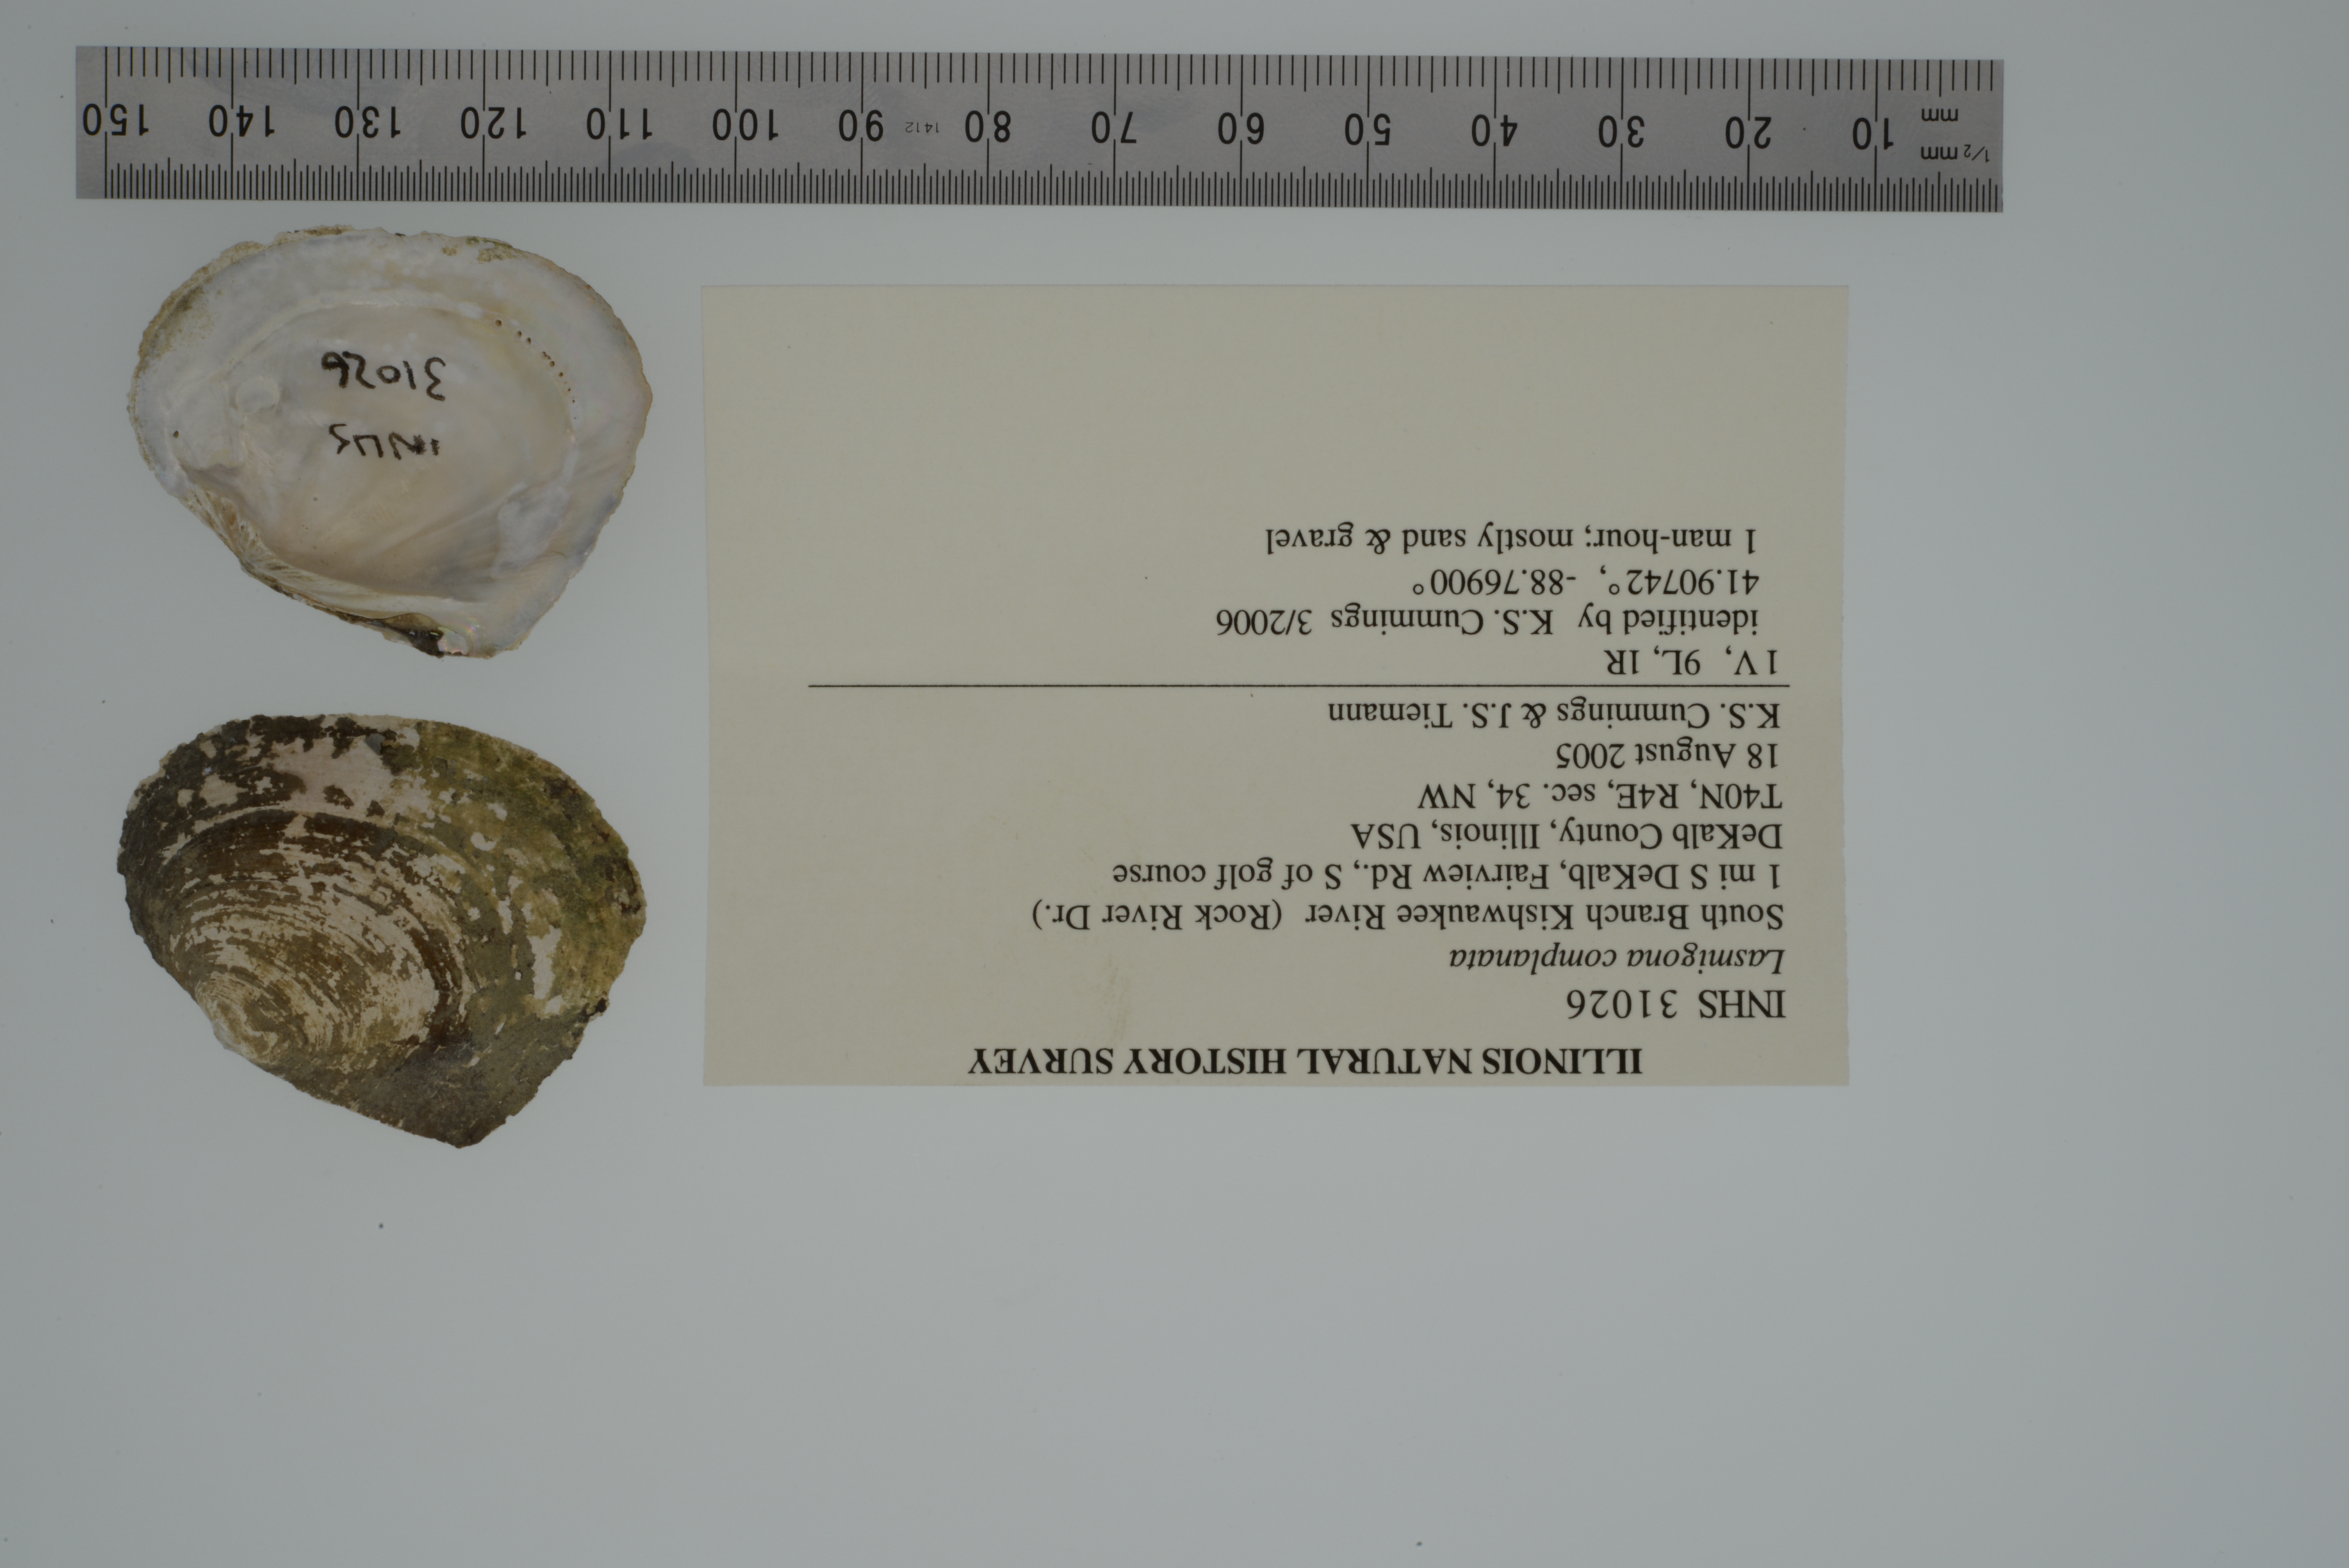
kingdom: Animalia
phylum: Mollusca
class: Bivalvia
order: Unionida
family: Unionidae
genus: Lasmigona
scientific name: Lasmigona complanata
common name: White heelsplitter
